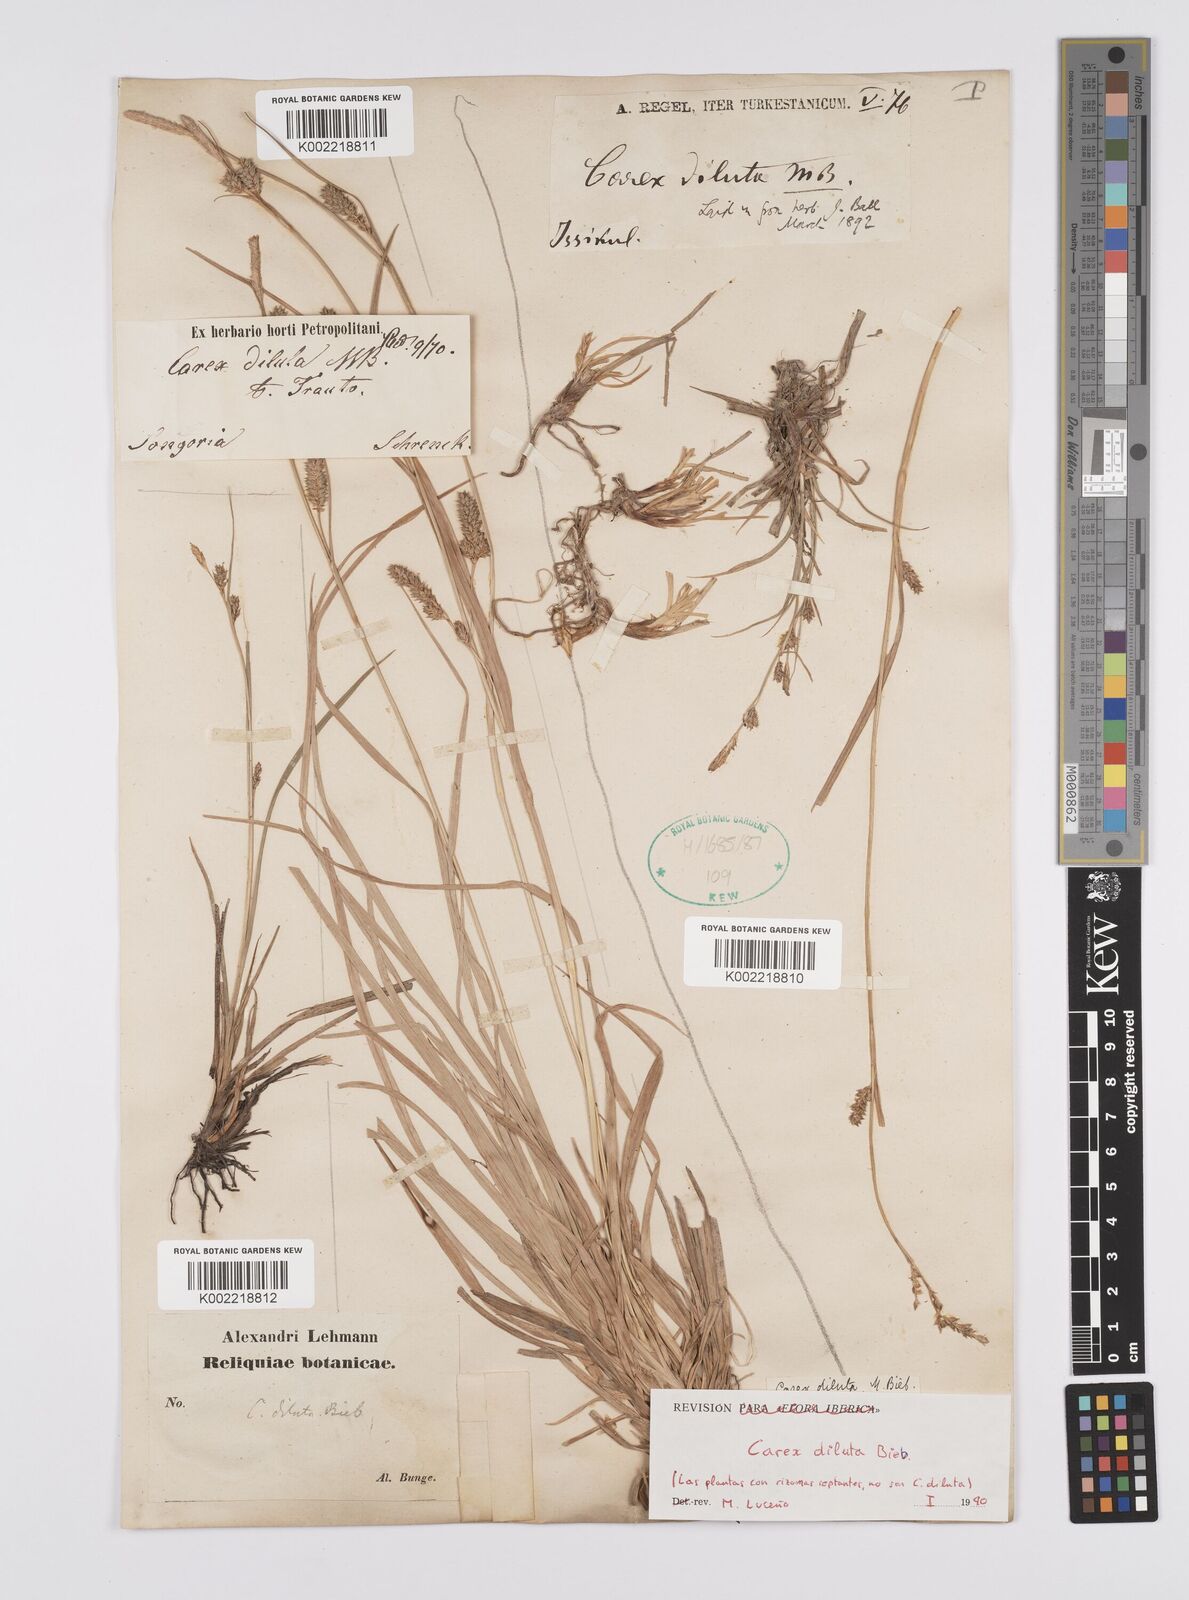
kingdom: Plantae
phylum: Tracheophyta
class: Liliopsida
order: Poales
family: Cyperaceae
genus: Carex
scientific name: Carex diluta
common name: Sedge
